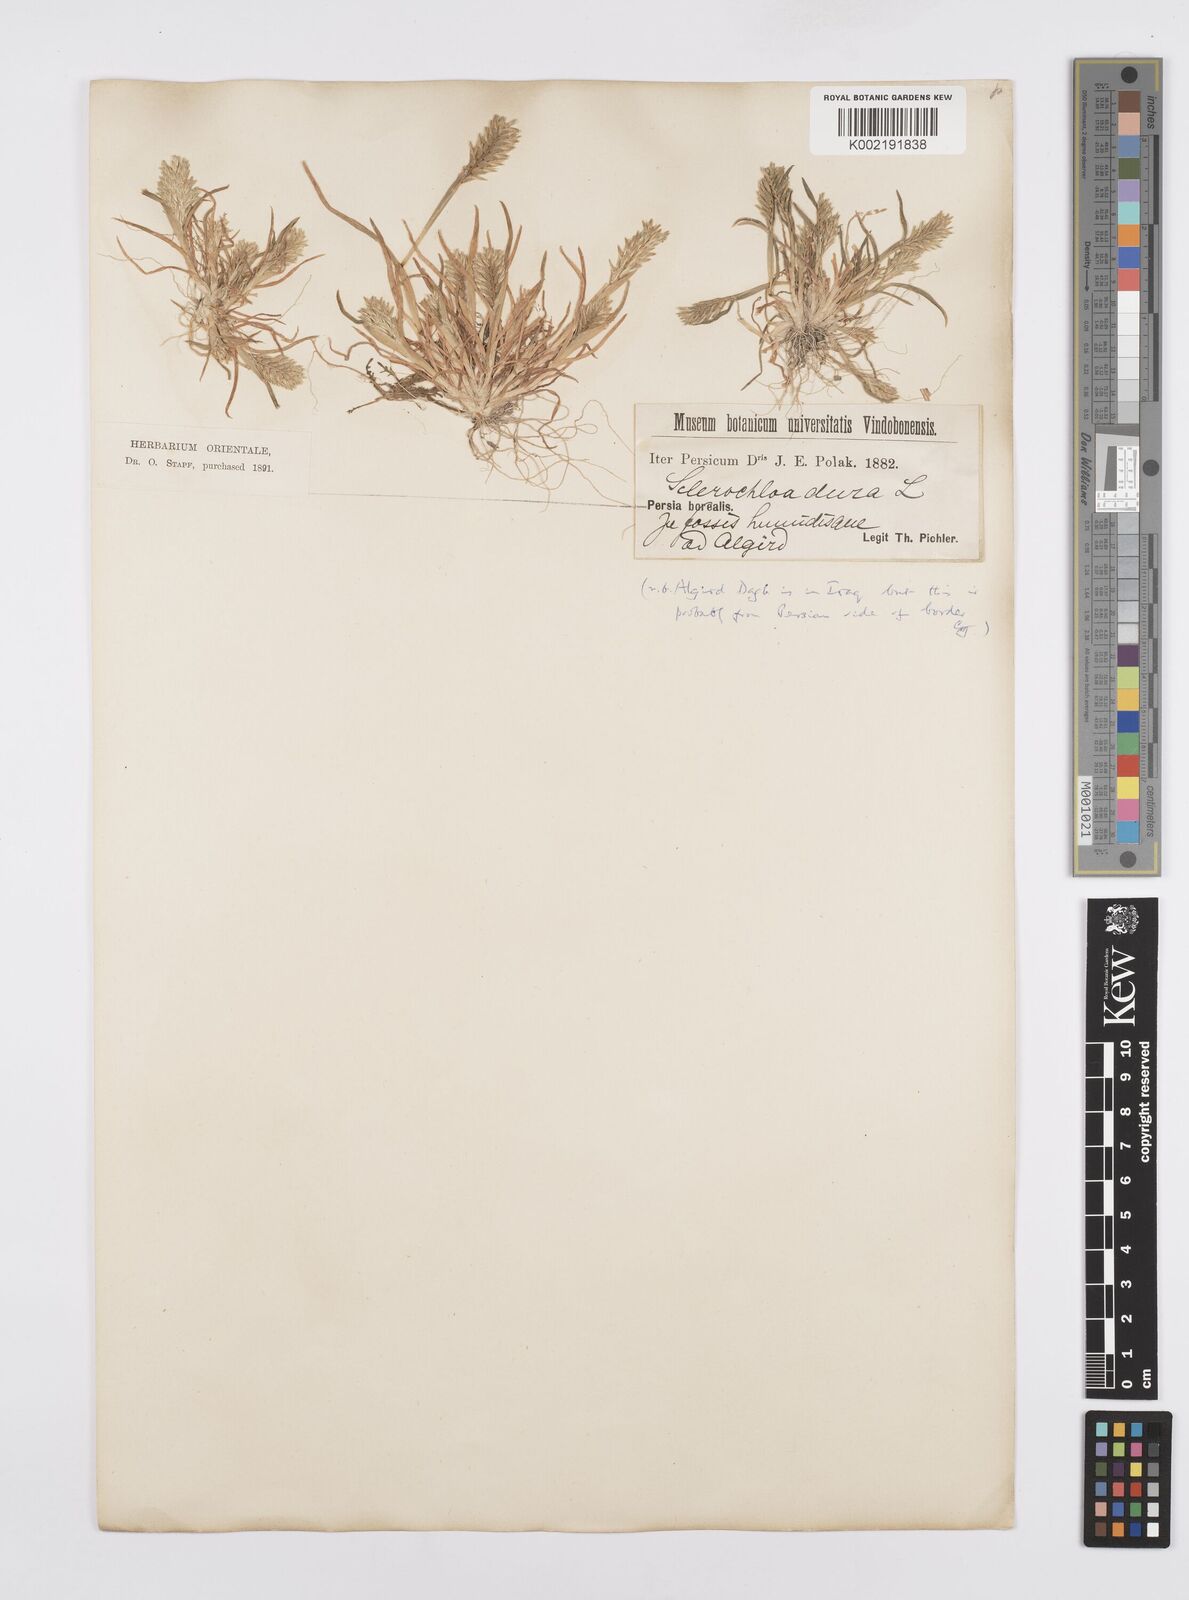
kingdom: Plantae
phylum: Tracheophyta
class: Liliopsida
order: Poales
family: Poaceae
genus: Sclerochloa
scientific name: Sclerochloa dura
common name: Common hardgrass
